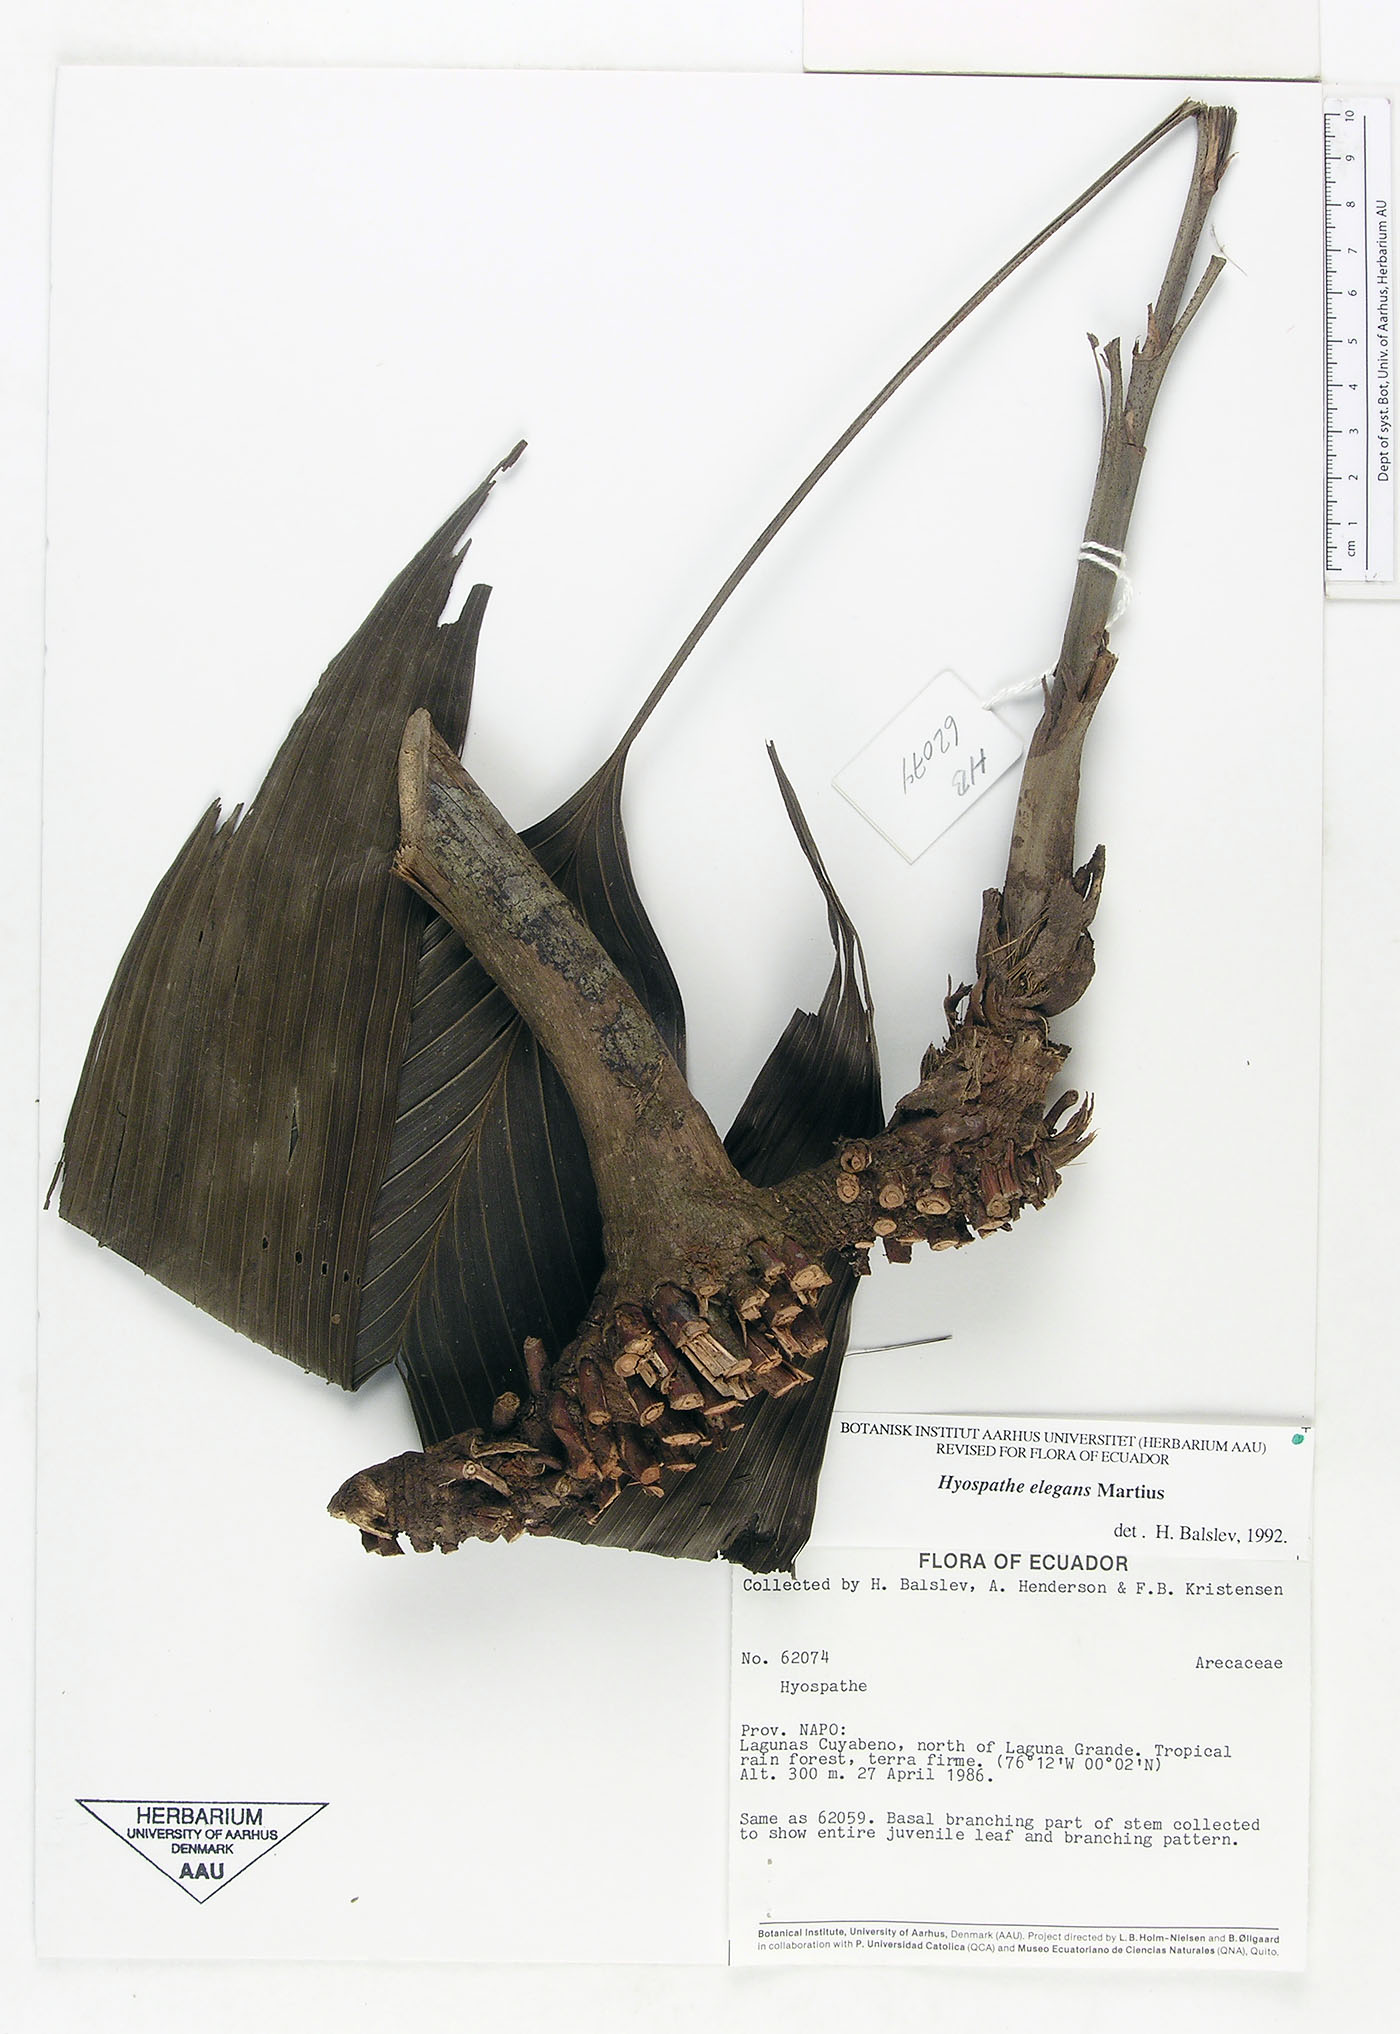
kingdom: Plantae
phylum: Tracheophyta
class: Liliopsida
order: Arecales
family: Arecaceae
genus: Hyospathe
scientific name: Hyospathe elegans
